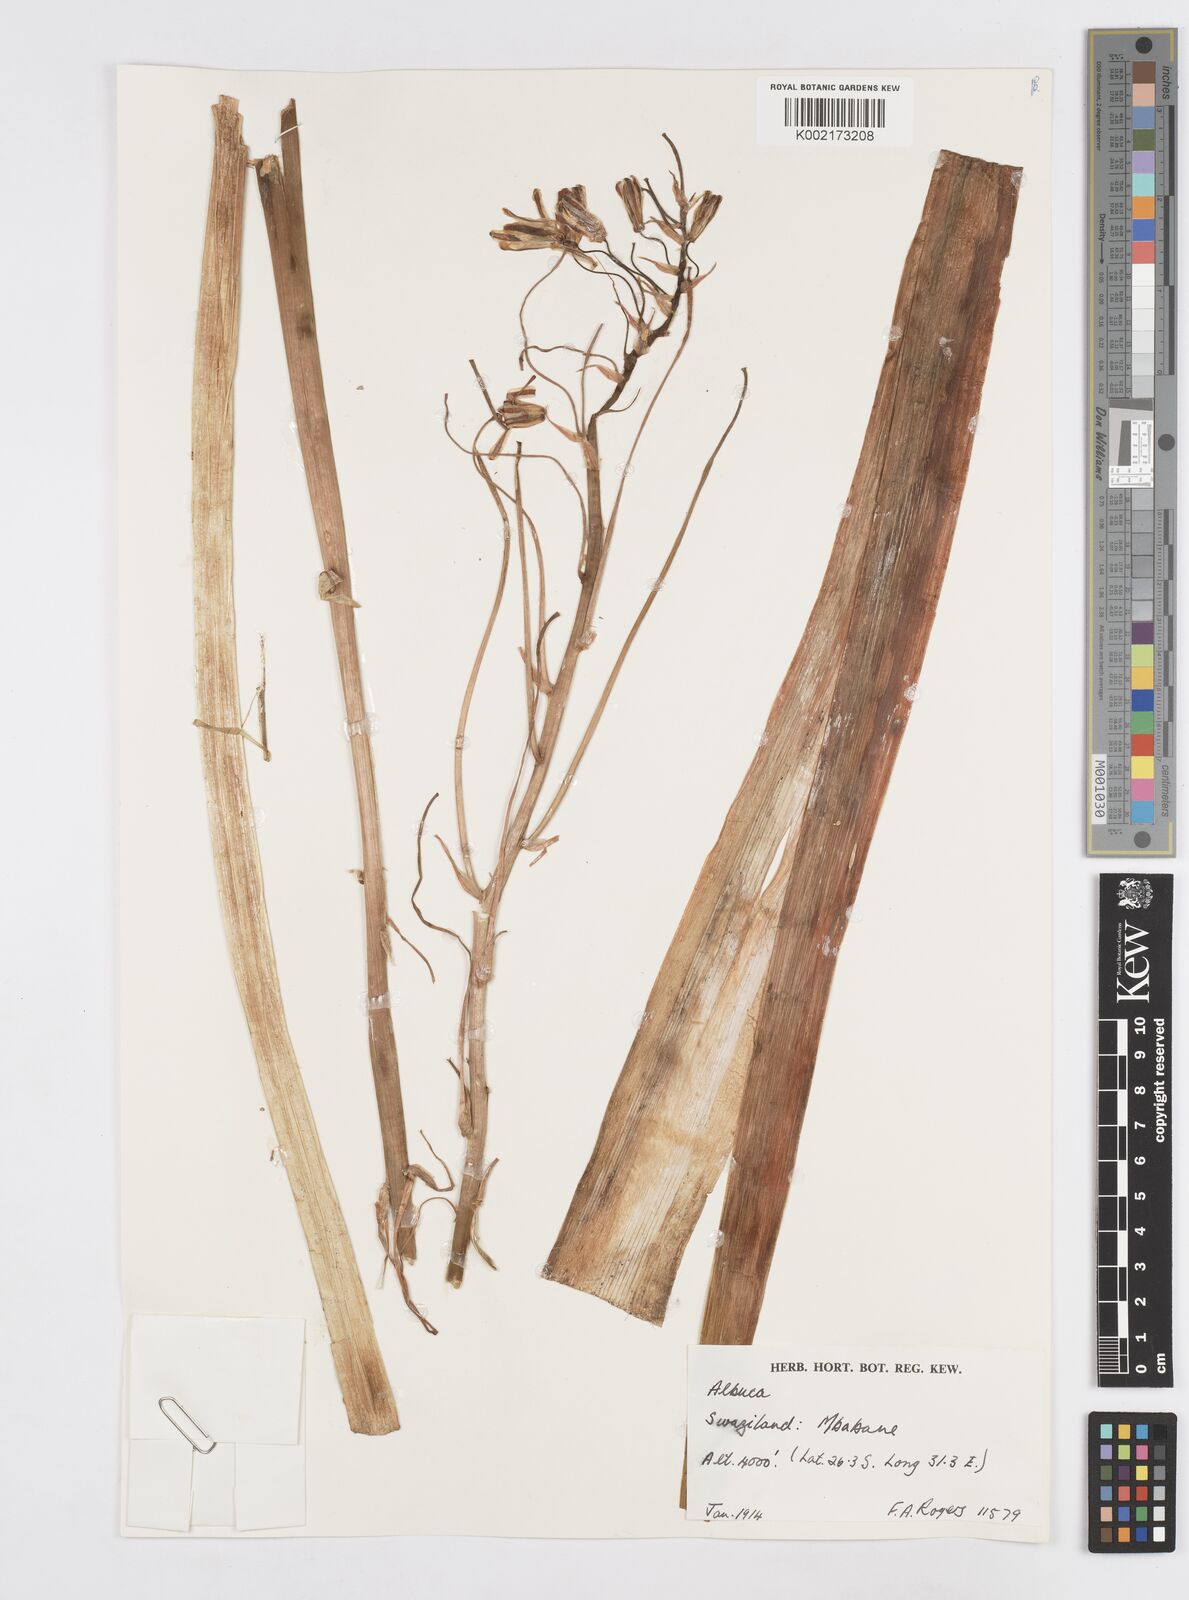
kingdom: Plantae
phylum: Tracheophyta
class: Liliopsida
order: Asparagales
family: Asparagaceae
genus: Albuca
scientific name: Albuca
